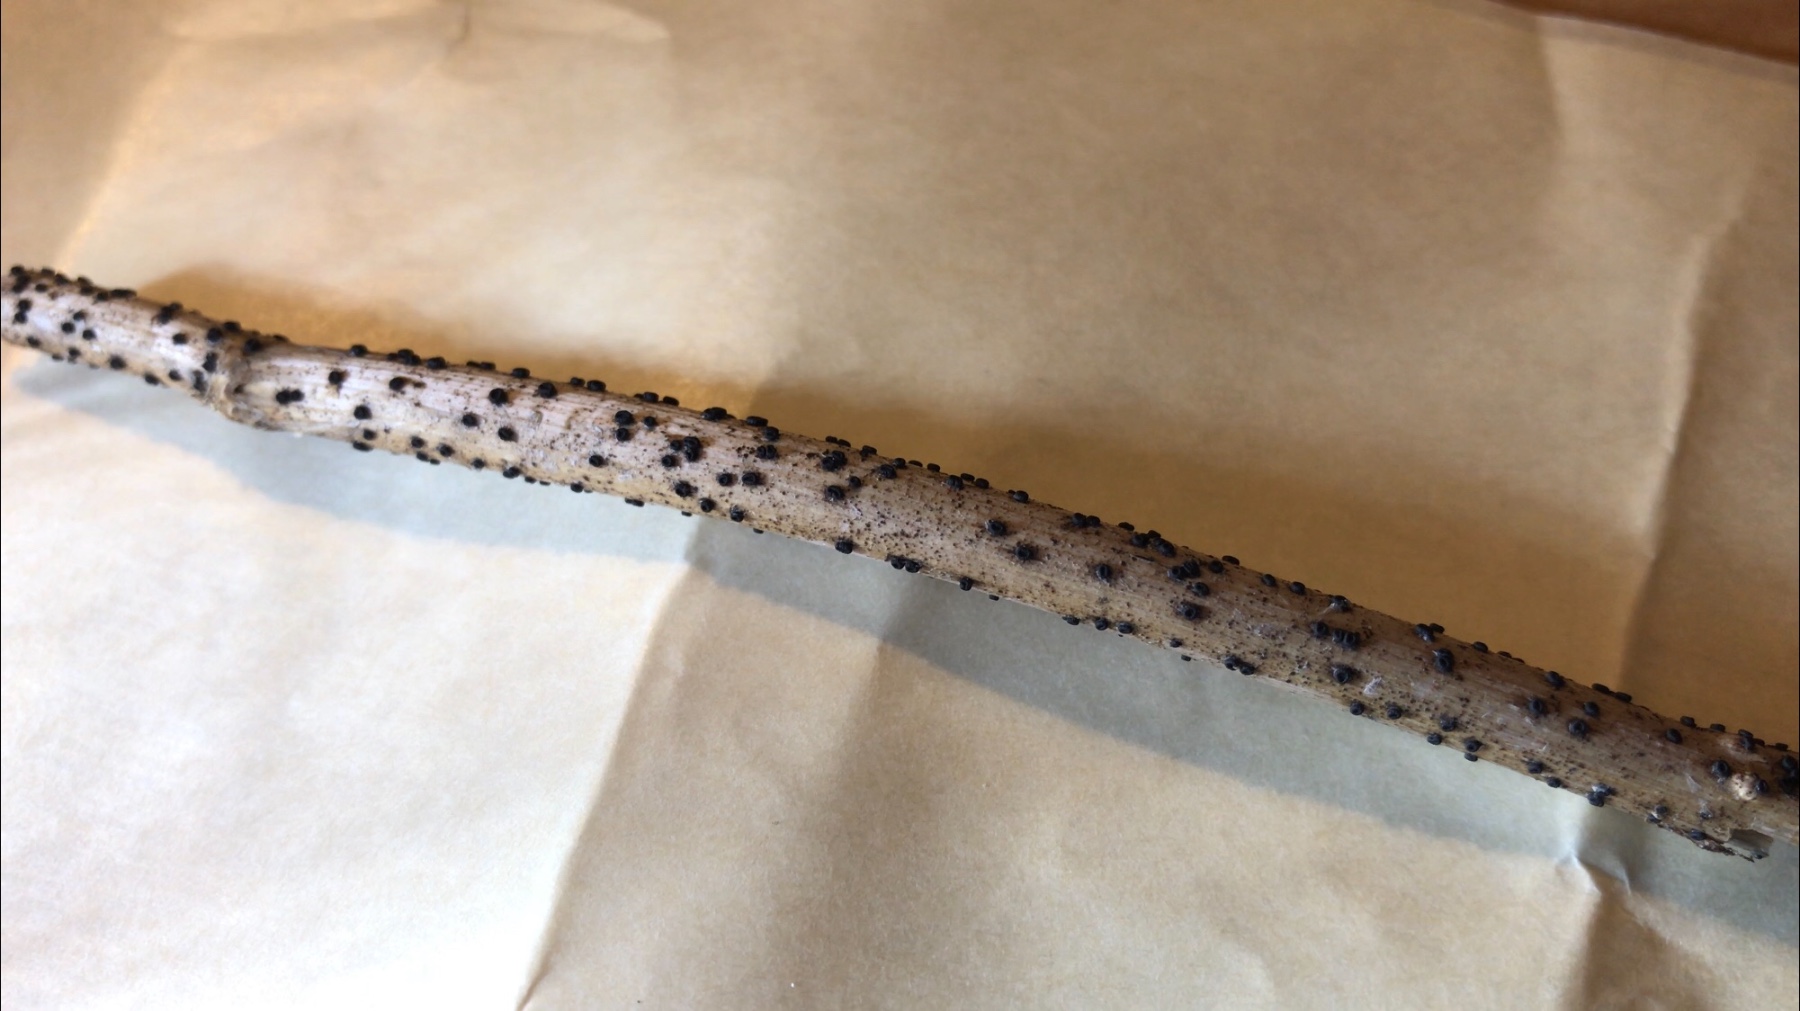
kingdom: Fungi
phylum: Ascomycota
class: Leotiomycetes
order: Helotiales
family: Heterosphaeriaceae
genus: Heterosphaeria
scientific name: Heterosphaeria
